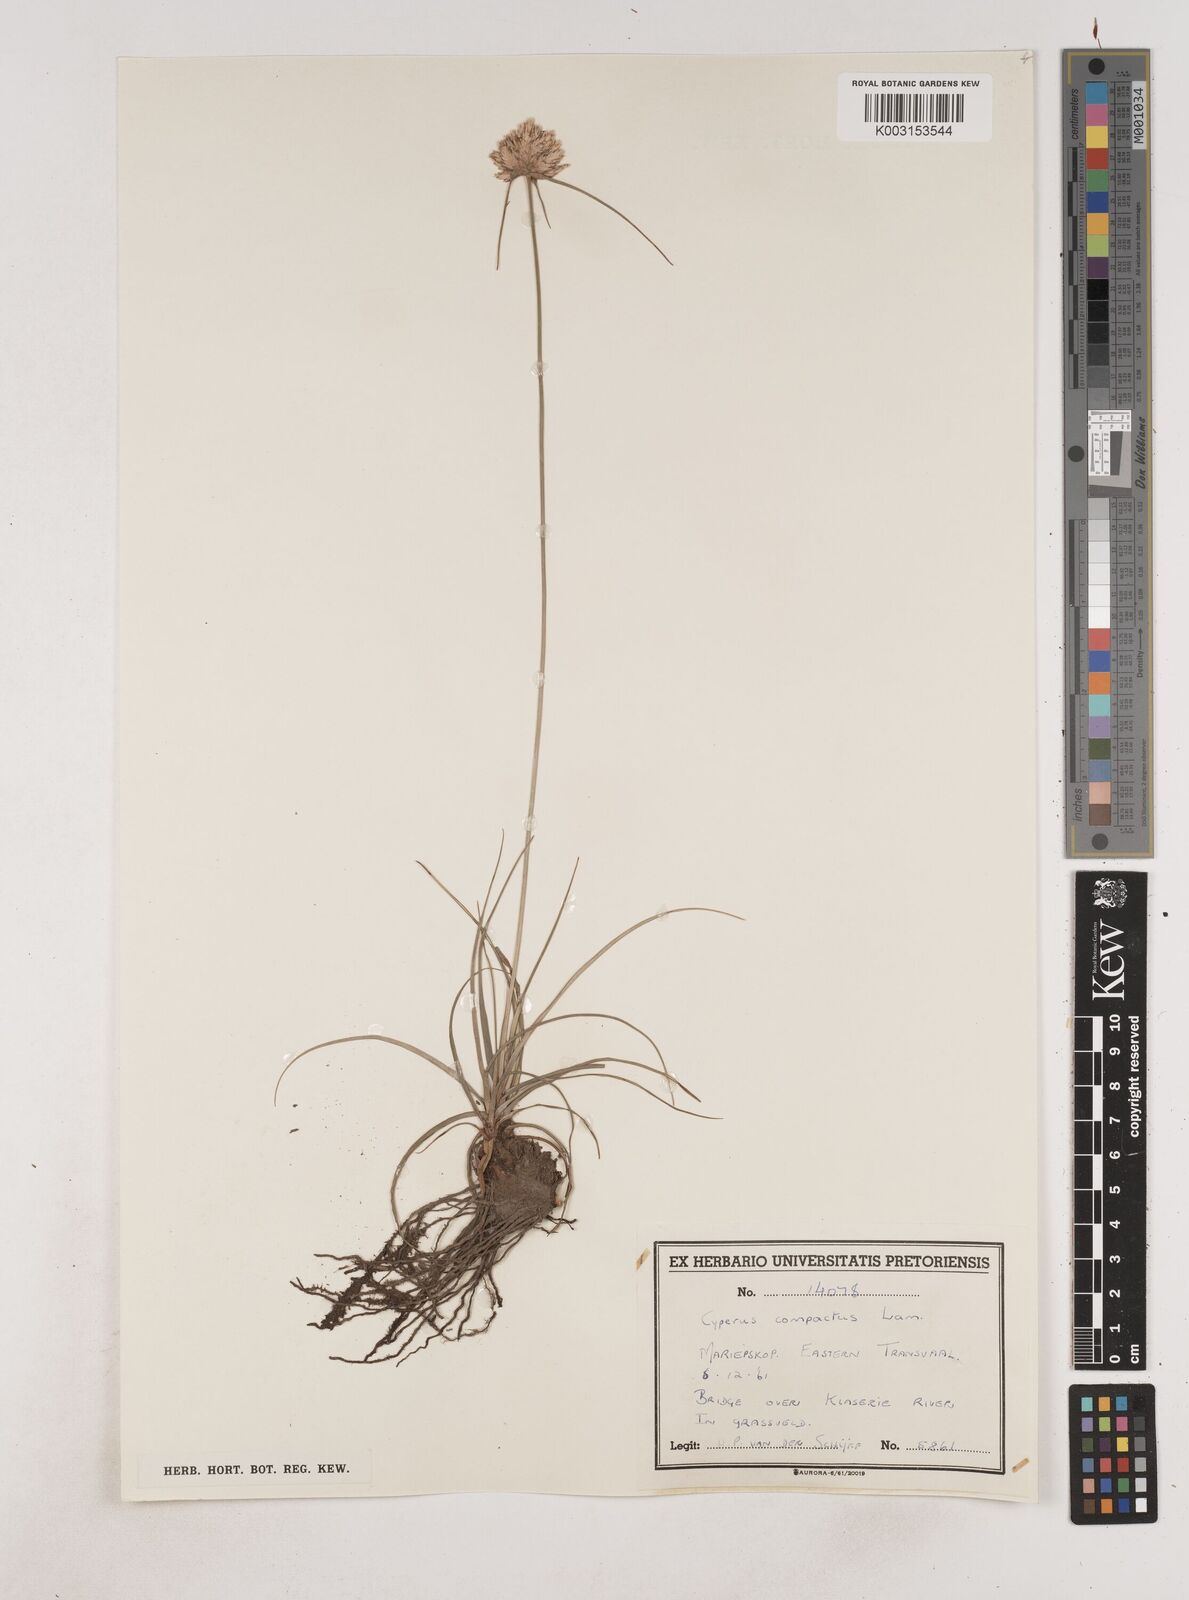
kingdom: Plantae
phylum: Tracheophyta
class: Liliopsida
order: Poales
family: Cyperaceae
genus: Cyperus
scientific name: Cyperus niveus
